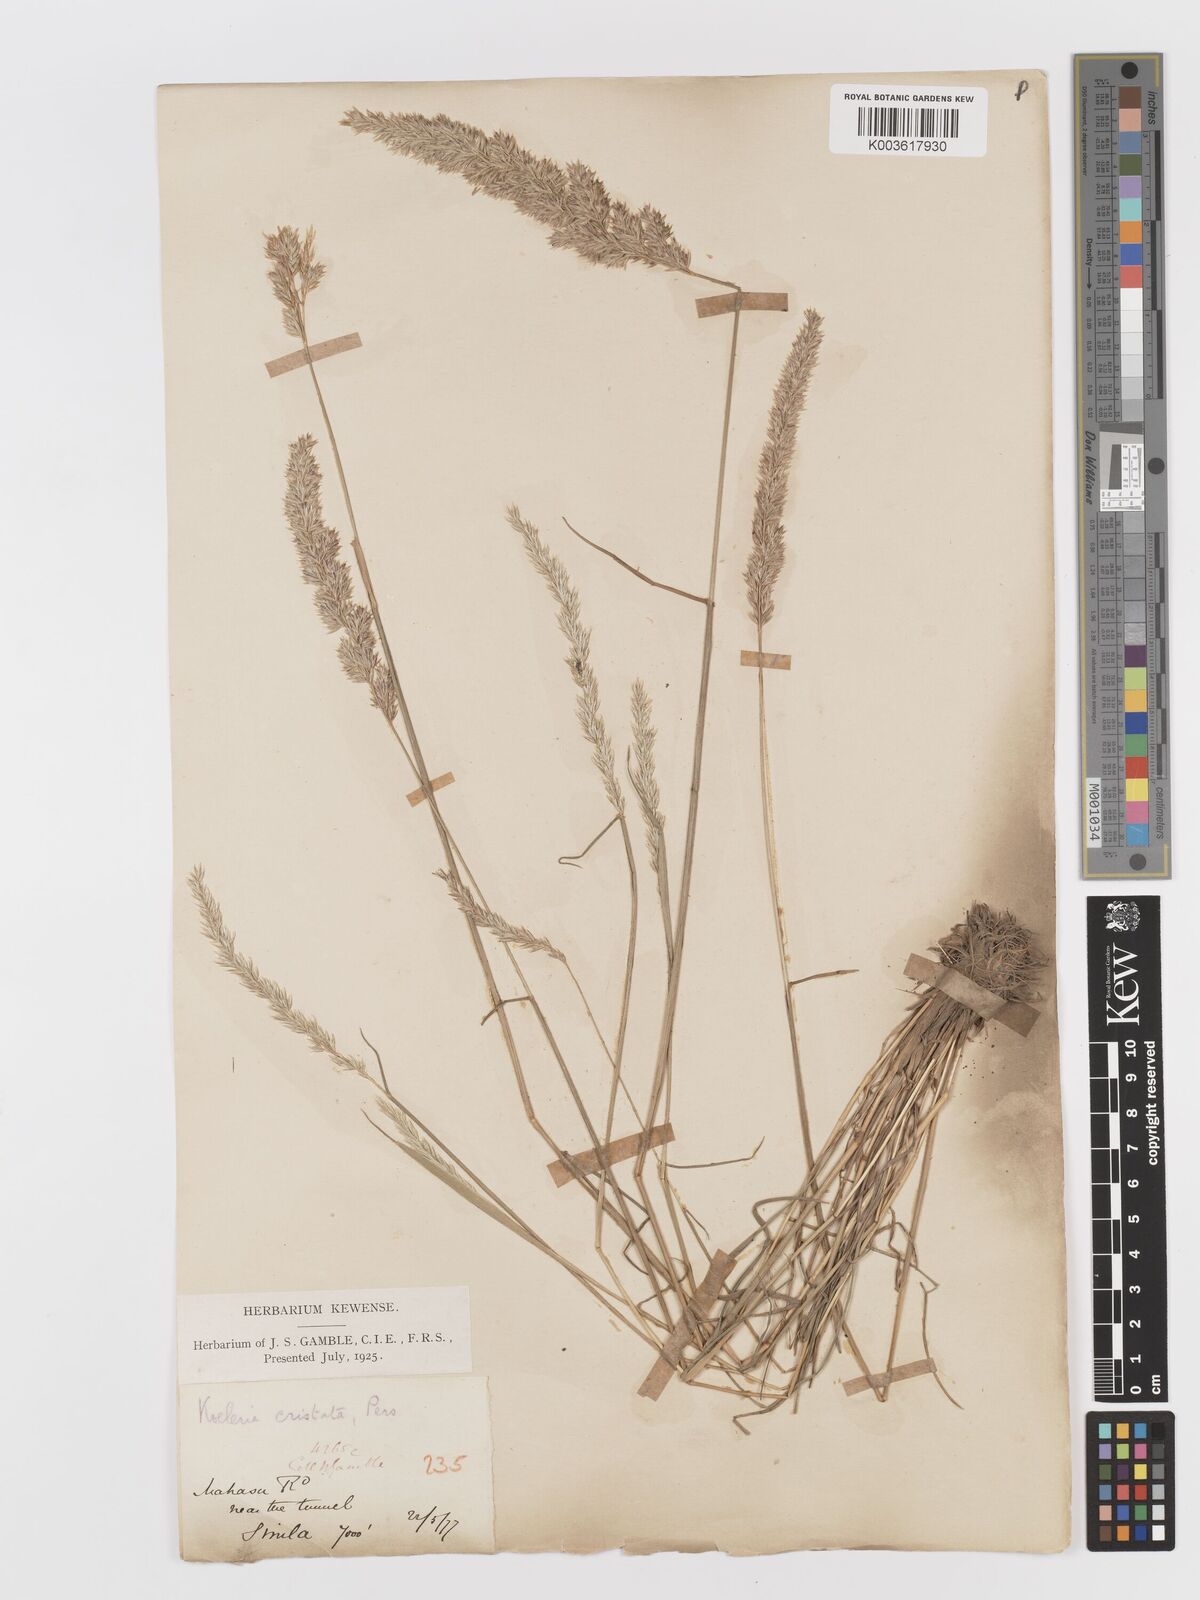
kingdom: Plantae
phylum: Tracheophyta
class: Liliopsida
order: Poales
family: Poaceae
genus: Koeleria
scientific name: Koeleria
